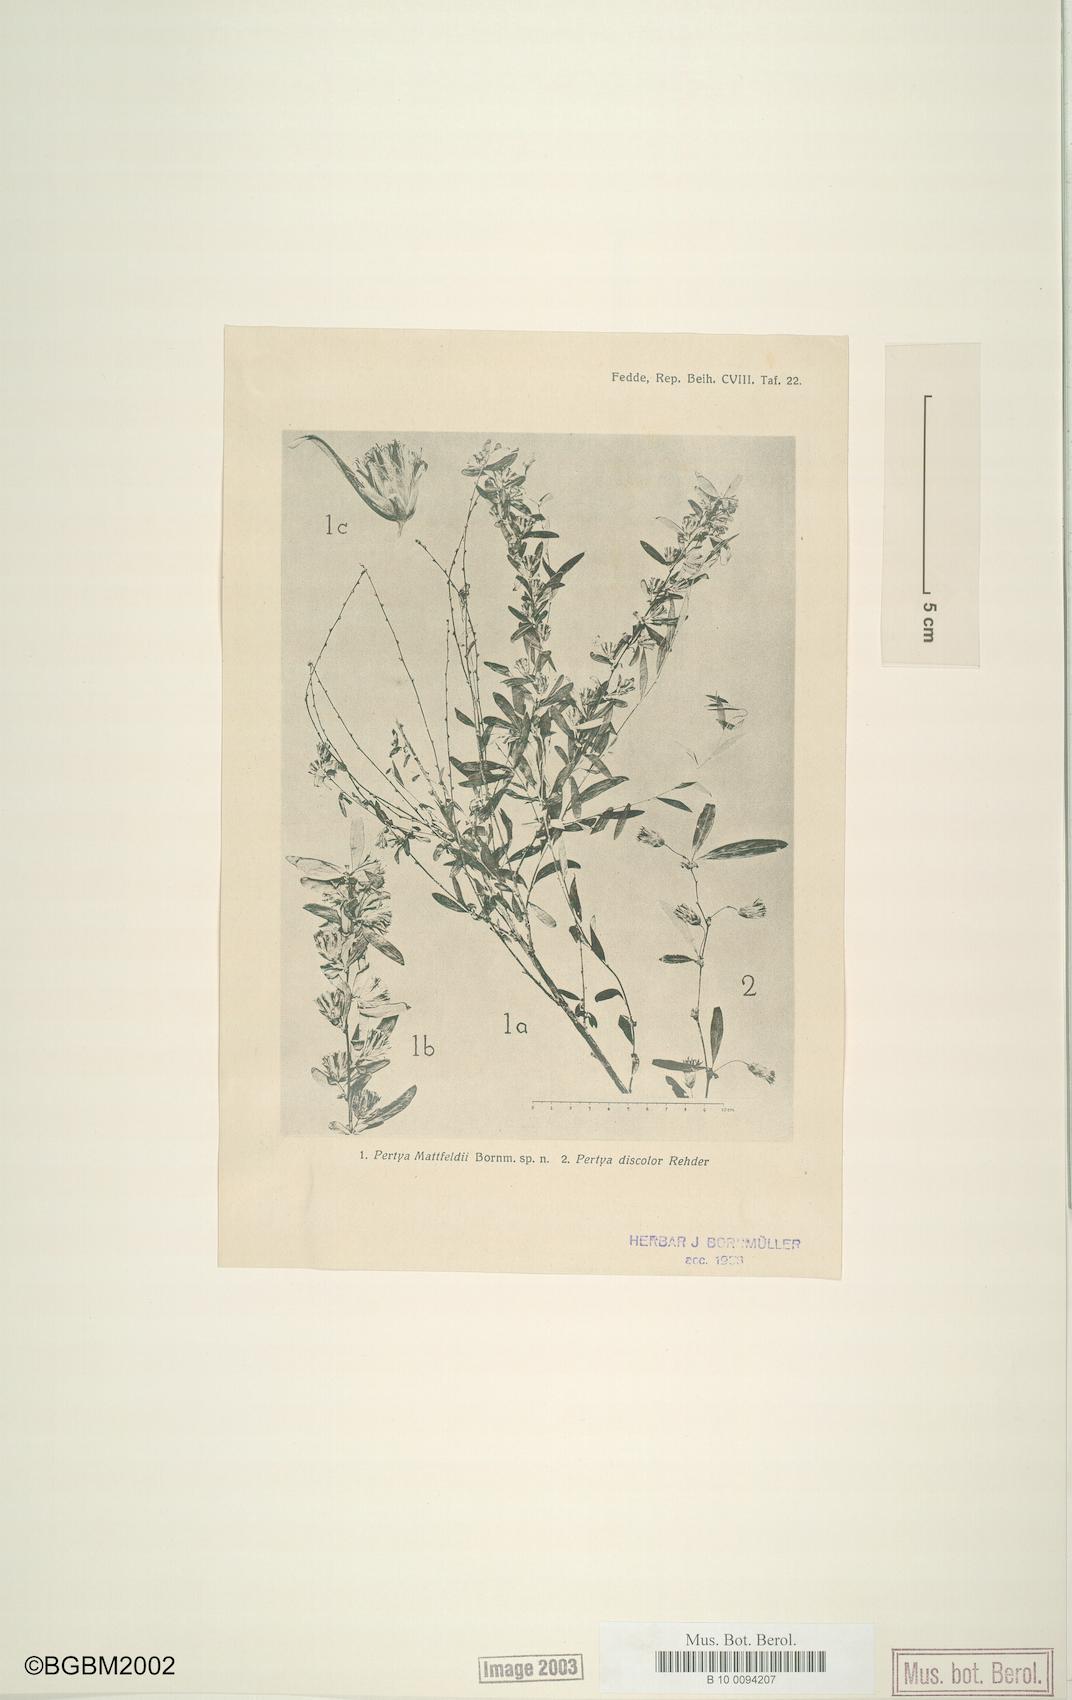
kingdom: Plantae
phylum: Tracheophyta
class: Magnoliopsida
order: Asterales
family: Asteraceae
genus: Pertya
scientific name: Pertya mattfeldii
